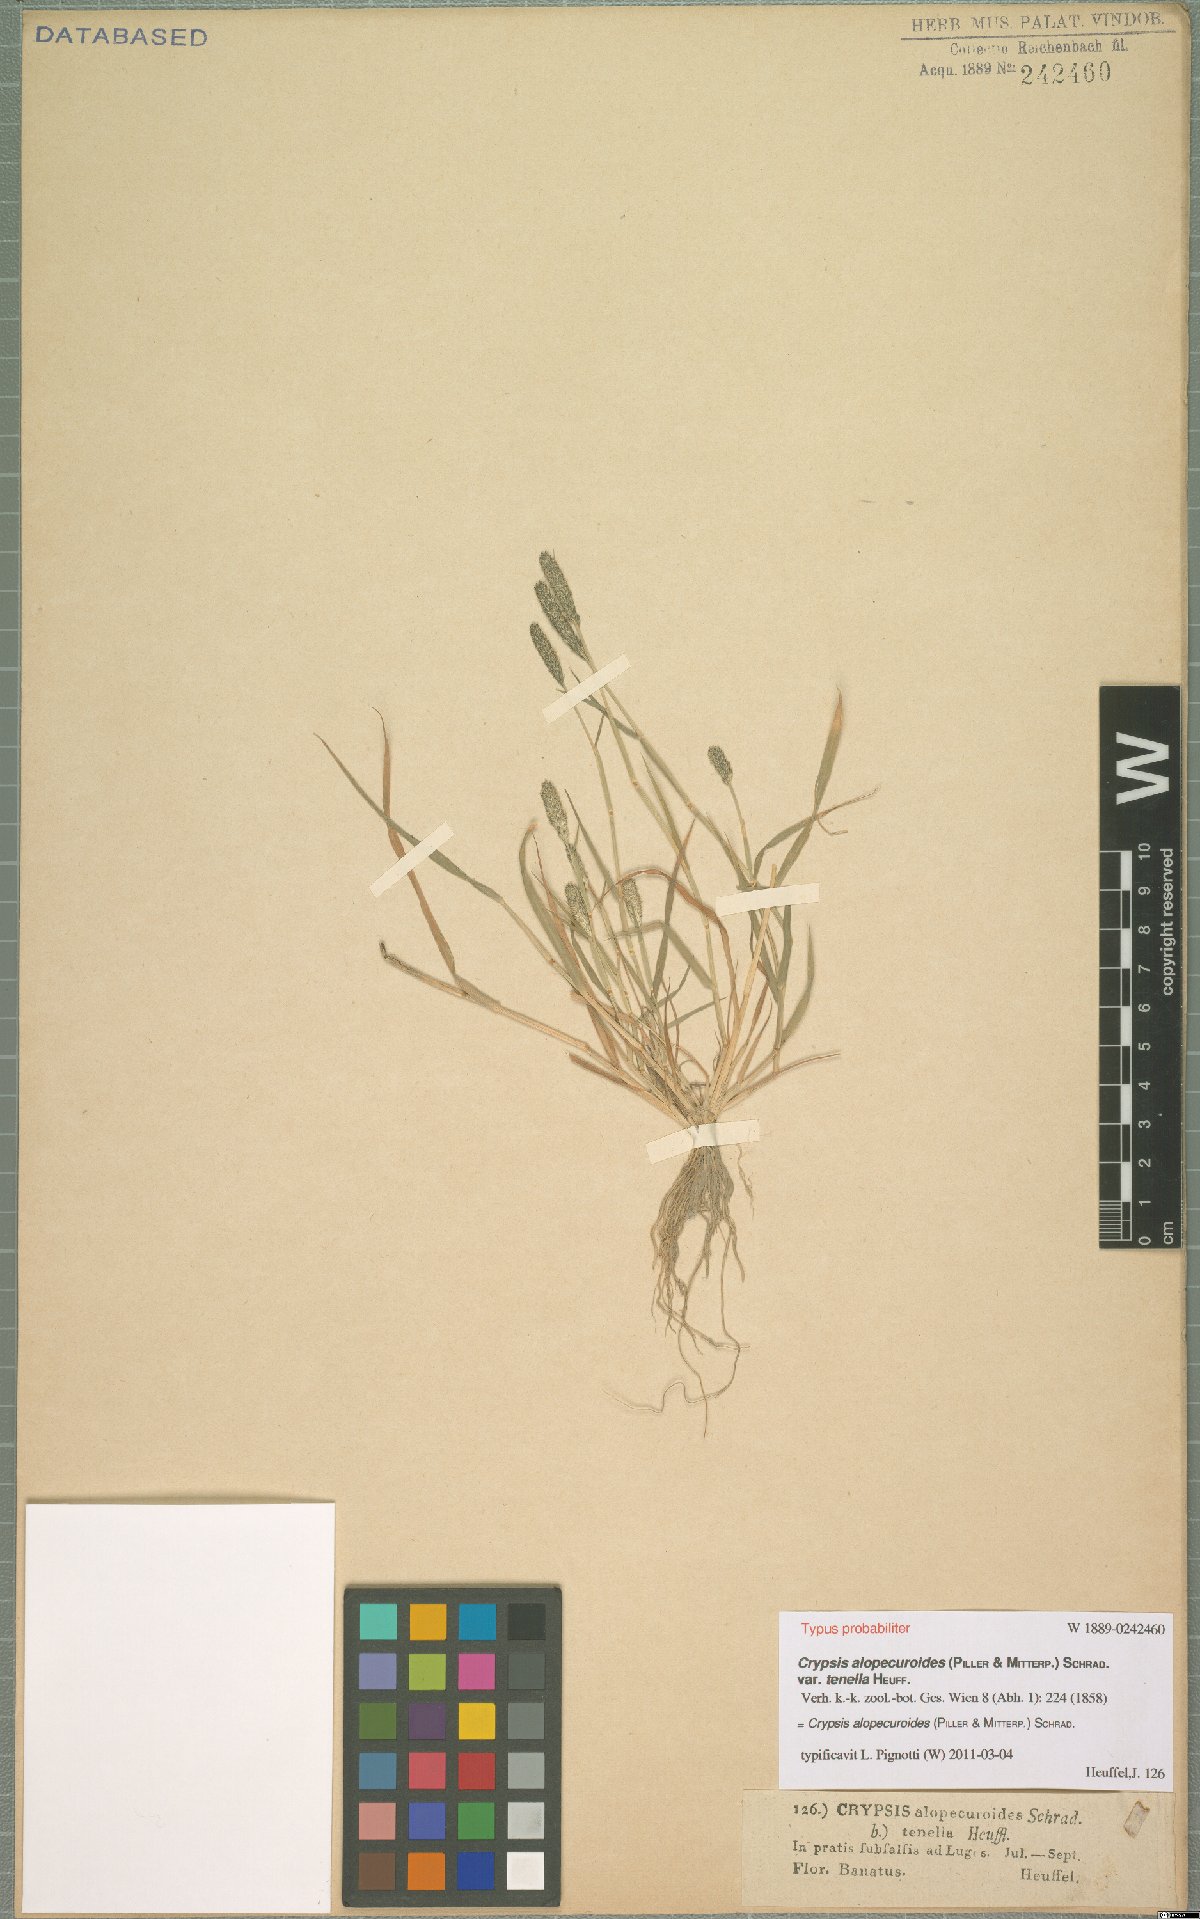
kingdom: Plantae
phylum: Tracheophyta
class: Liliopsida
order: Poales
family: Poaceae
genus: Sporobolus
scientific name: Sporobolus alopecuroides
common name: Foxtail pricklegrass
